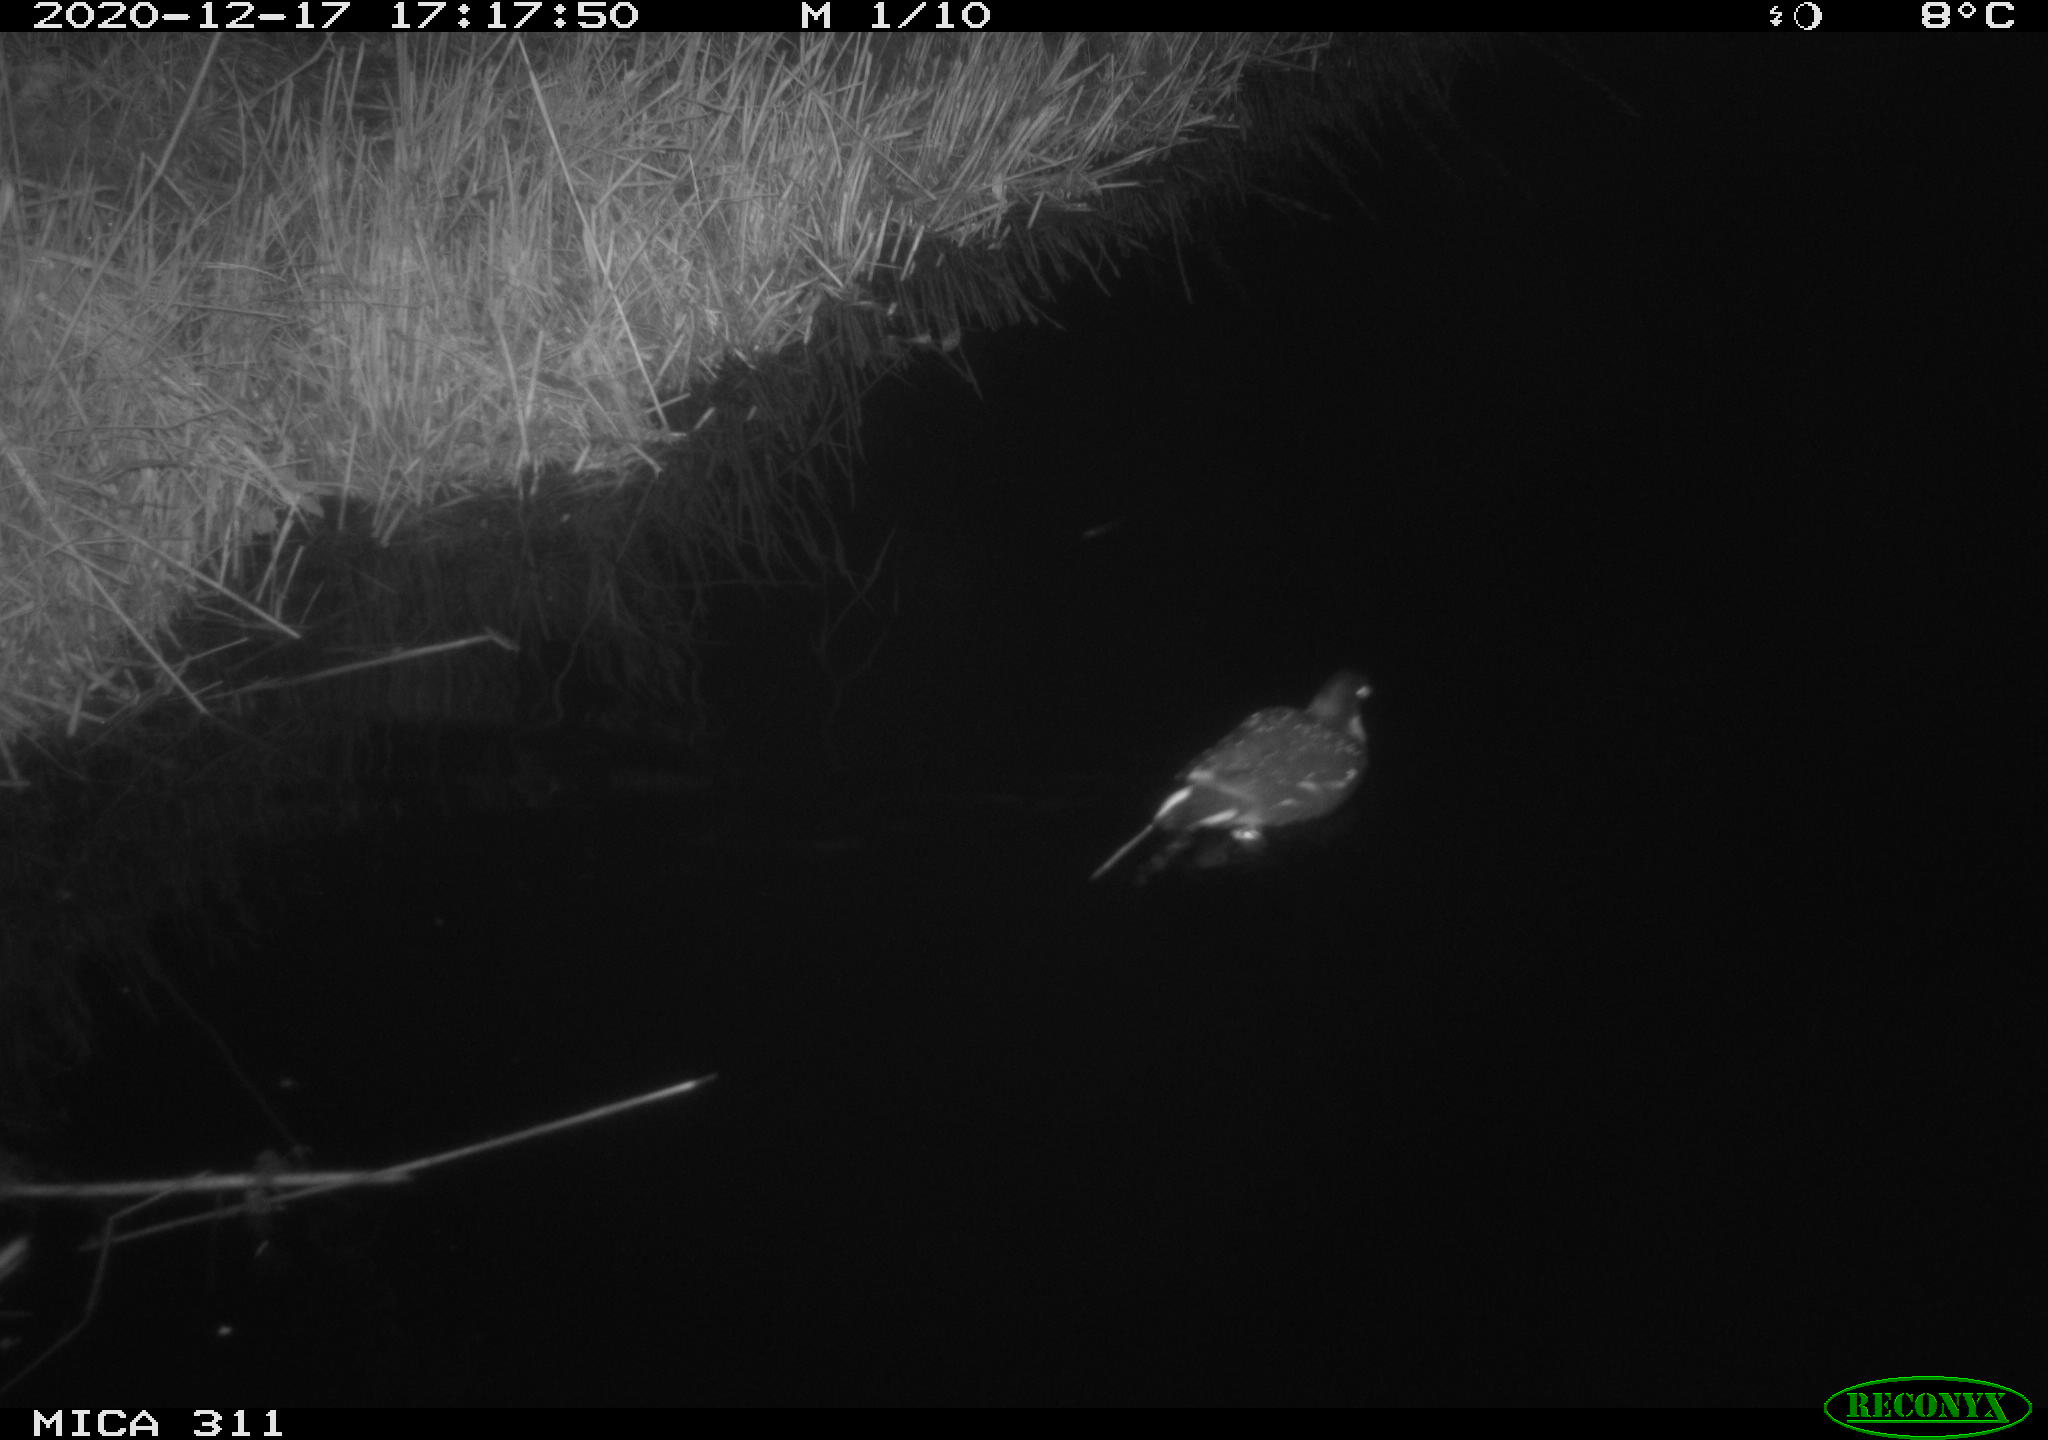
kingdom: Animalia
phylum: Chordata
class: Aves
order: Gruiformes
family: Rallidae
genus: Gallinula
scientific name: Gallinula chloropus
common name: Common moorhen
